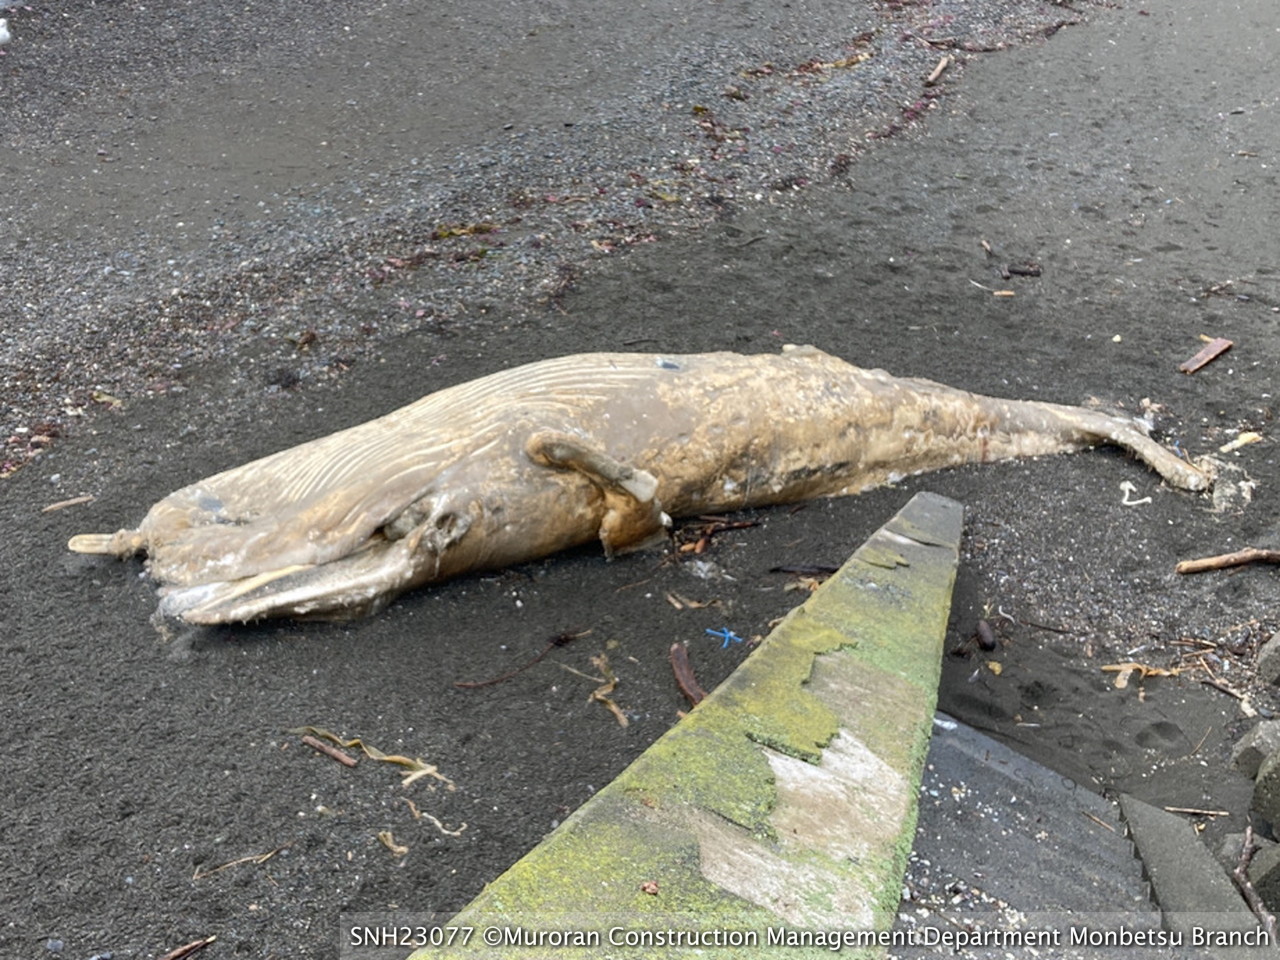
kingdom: Animalia
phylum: Chordata
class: Mammalia
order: Cetacea
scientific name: Cetacea
